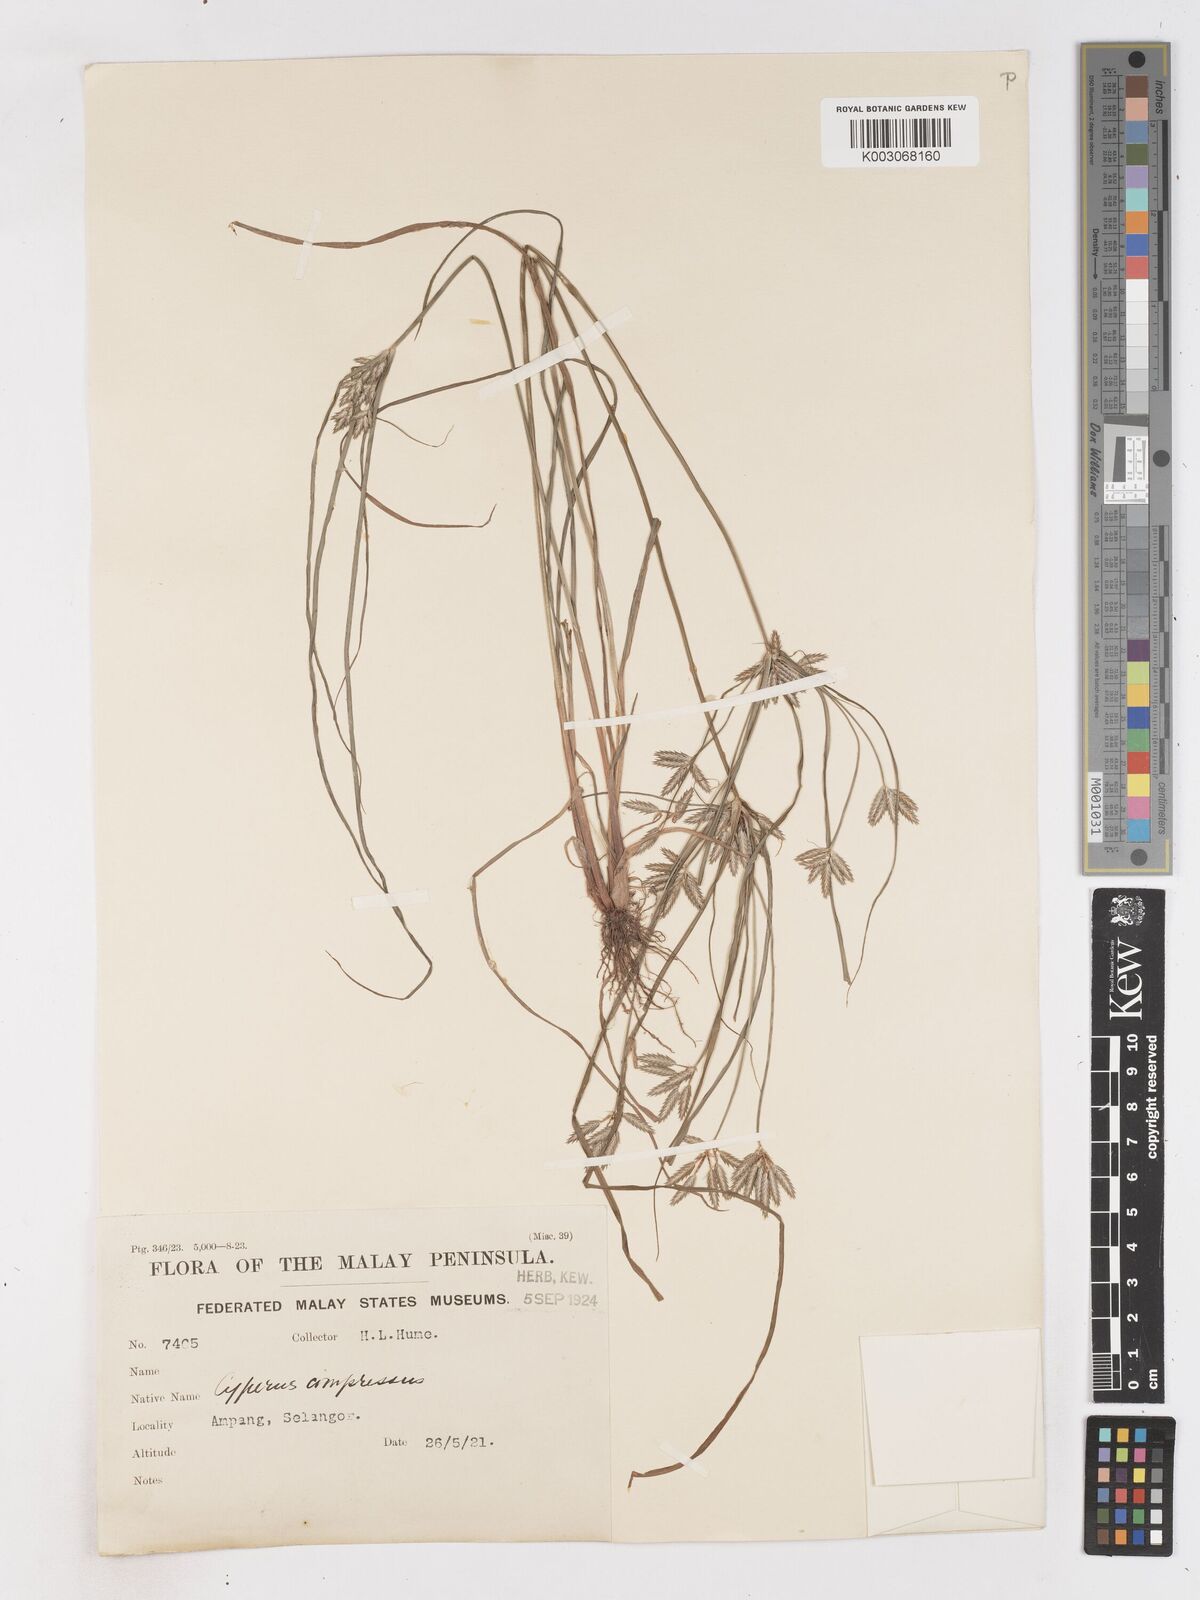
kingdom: Plantae
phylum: Tracheophyta
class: Liliopsida
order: Poales
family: Cyperaceae
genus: Cyperus
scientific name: Cyperus compressus
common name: Poorland flatsedge
